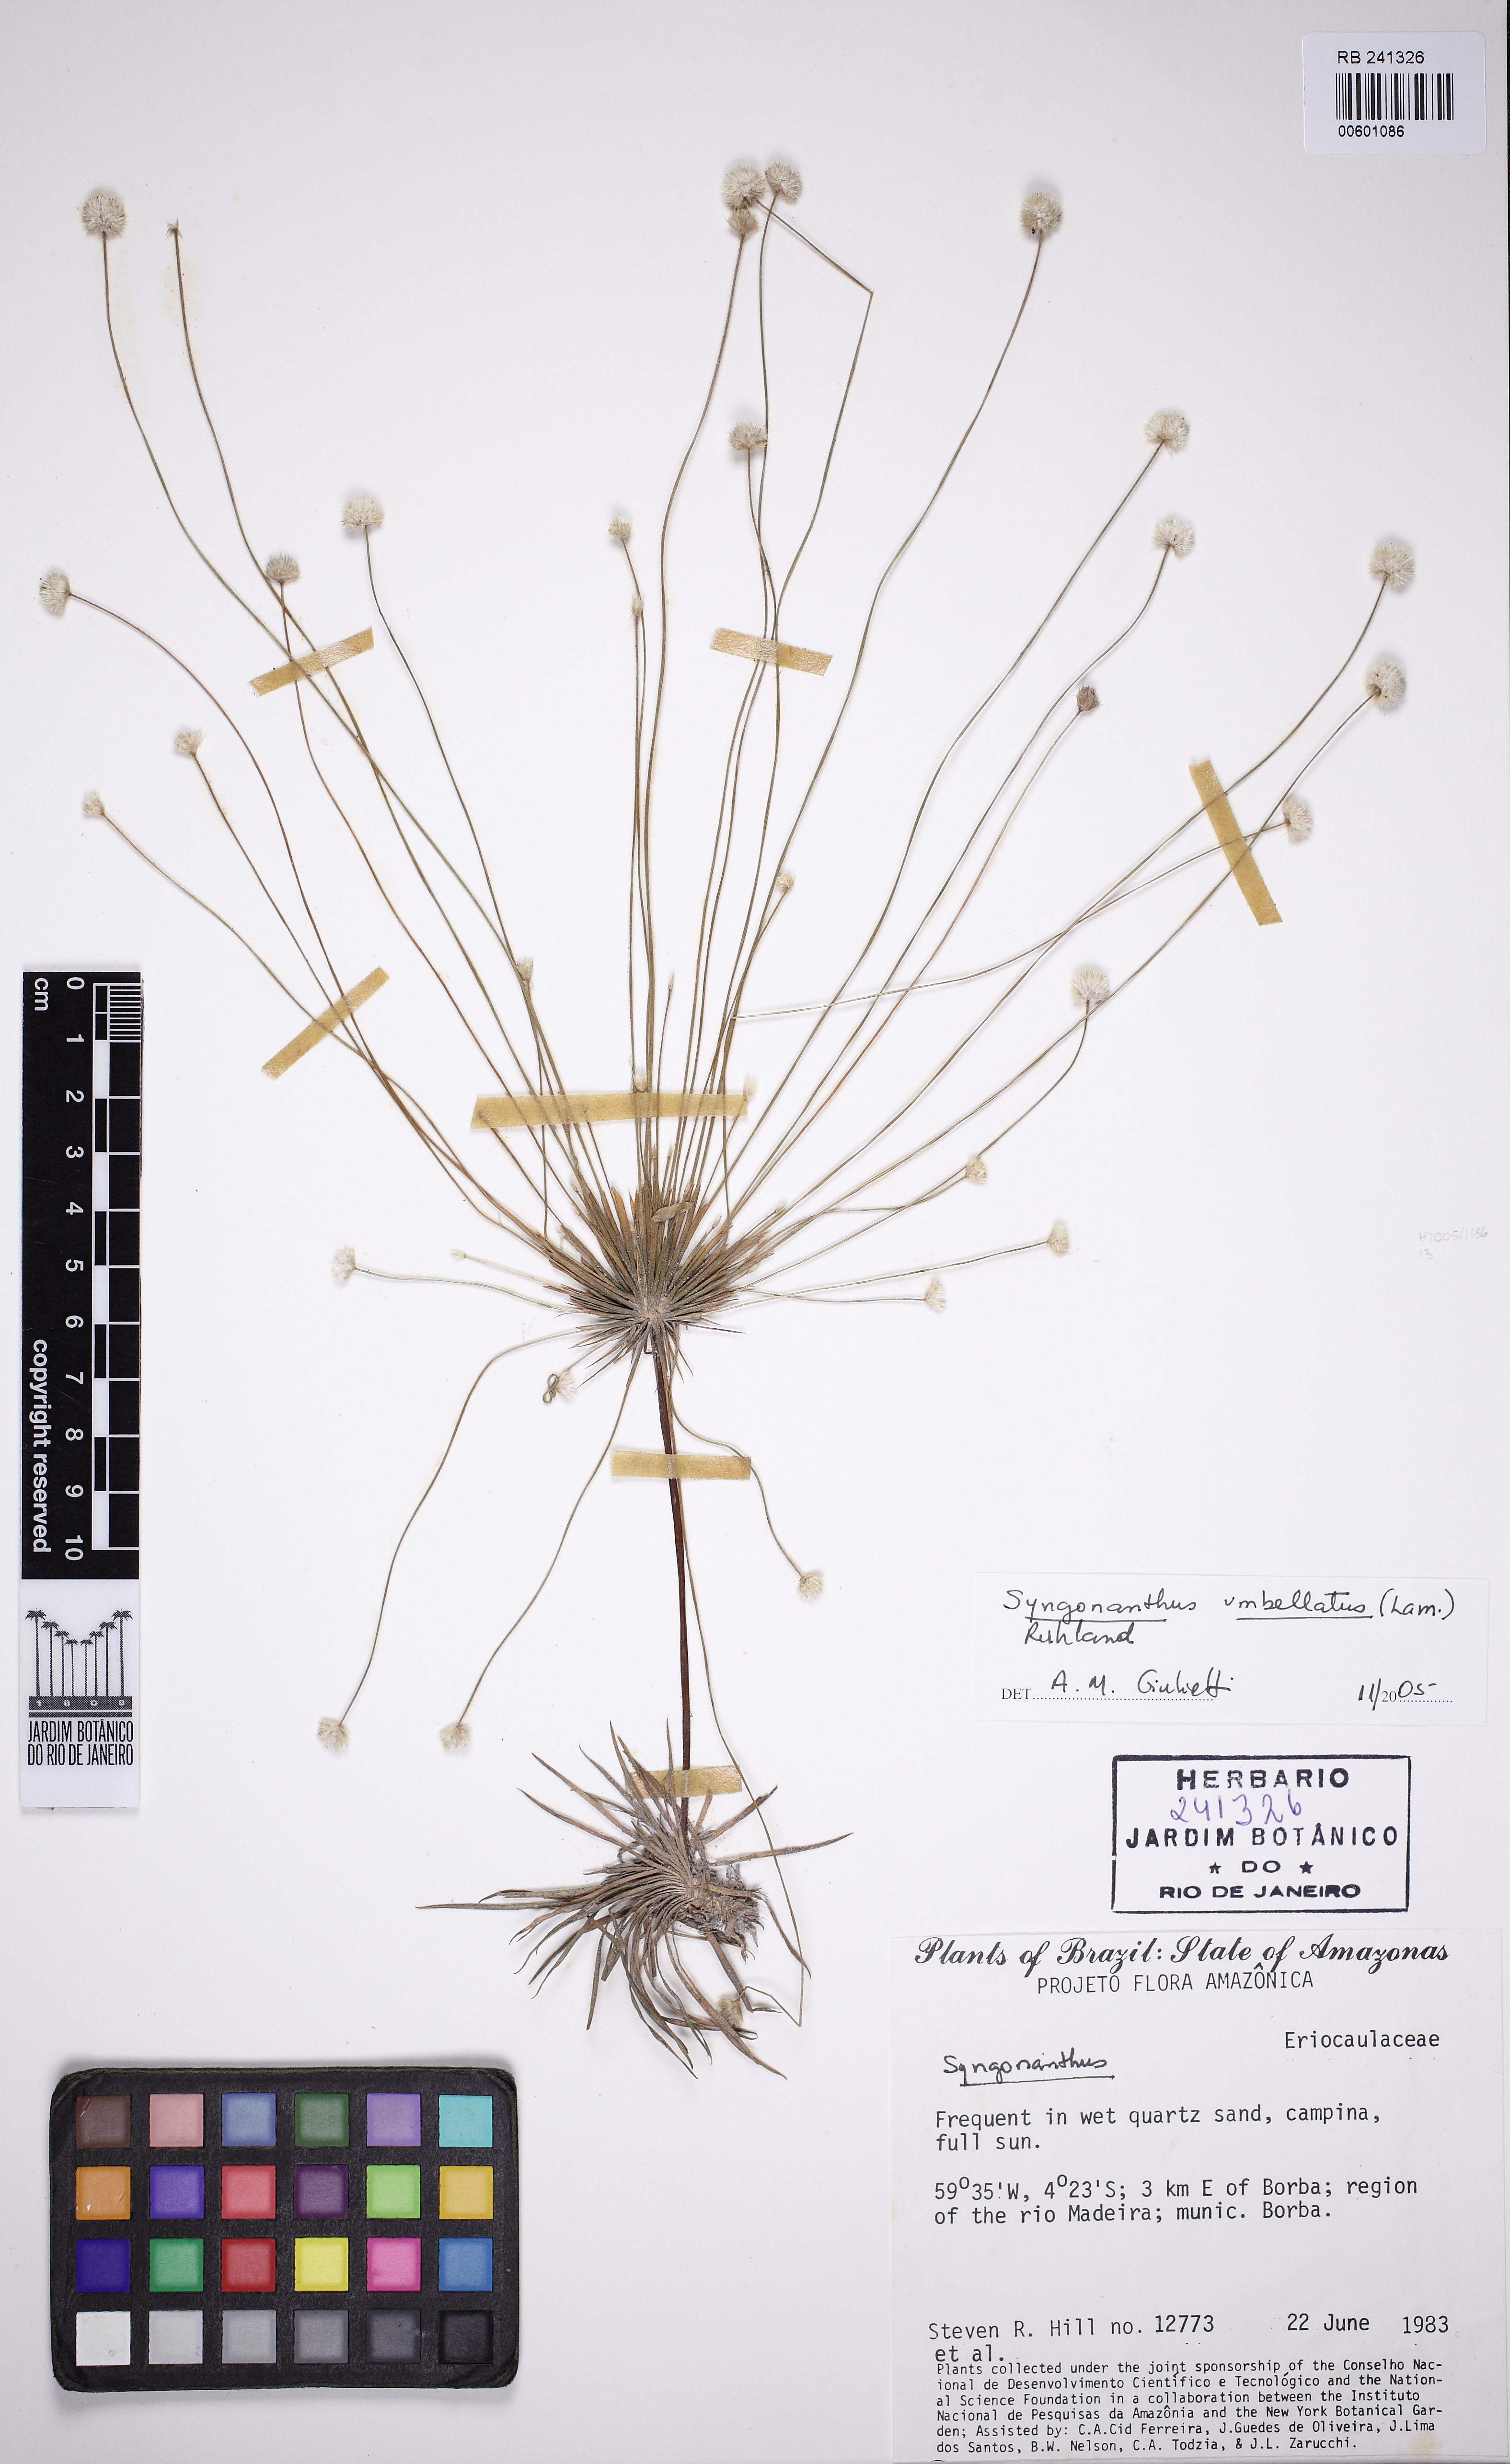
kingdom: Plantae
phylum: Tracheophyta
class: Liliopsida
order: Poales
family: Eriocaulaceae
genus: Syngonanthus
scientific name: Syngonanthus umbellatus
